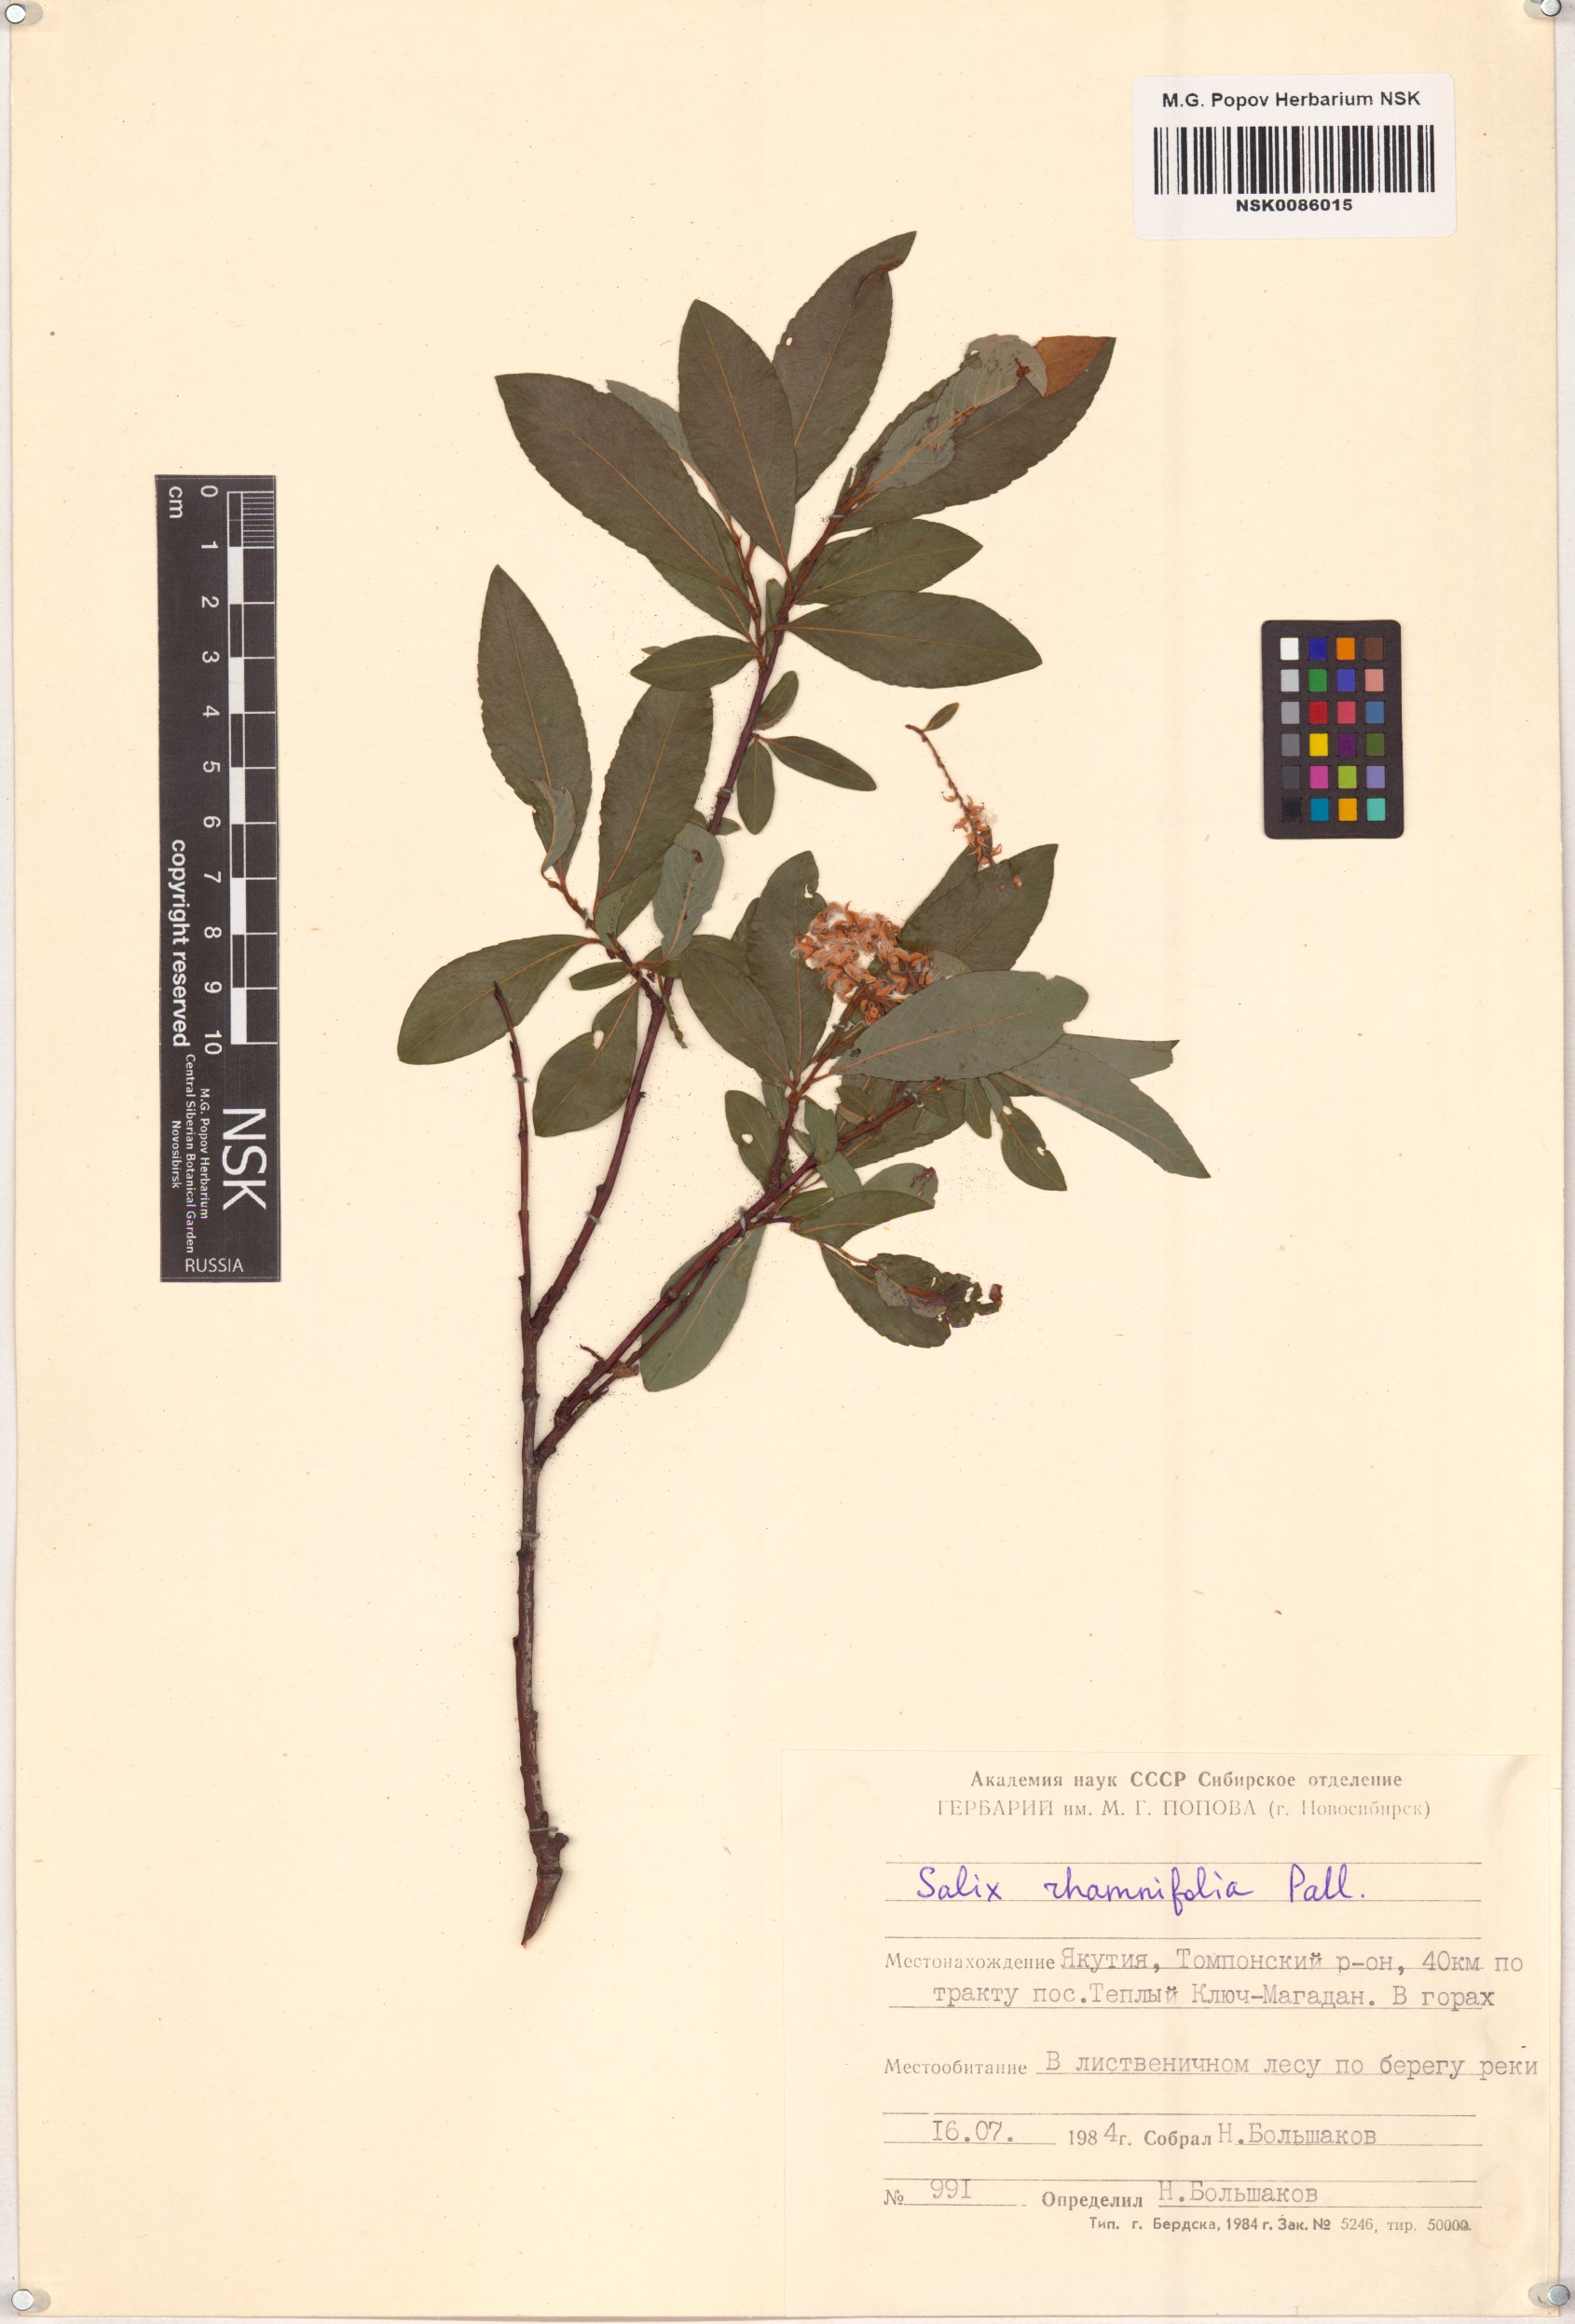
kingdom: Plantae
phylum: Tracheophyta
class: Magnoliopsida
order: Malpighiales
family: Salicaceae
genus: Salix
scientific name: Salix rhamnifolia
